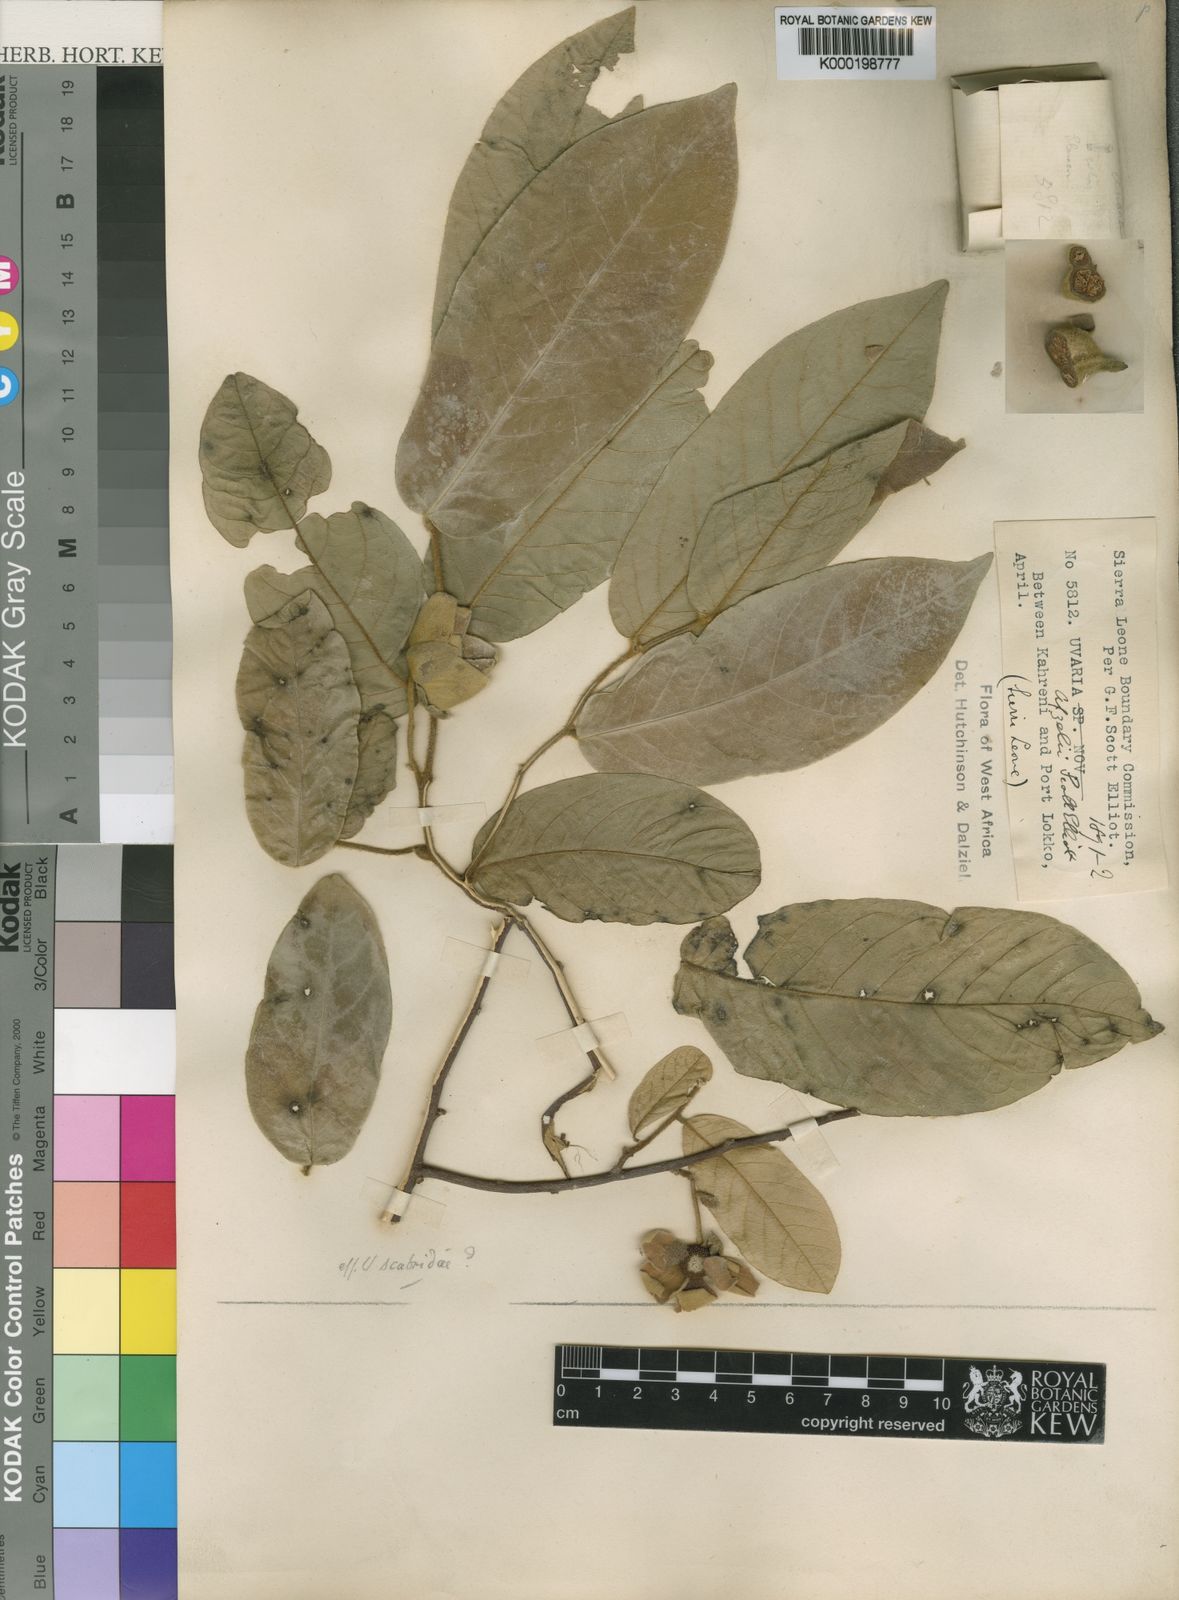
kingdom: Plantae
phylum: Tracheophyta
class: Magnoliopsida
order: Magnoliales
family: Annonaceae
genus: Uvaria
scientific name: Uvaria afzelii
